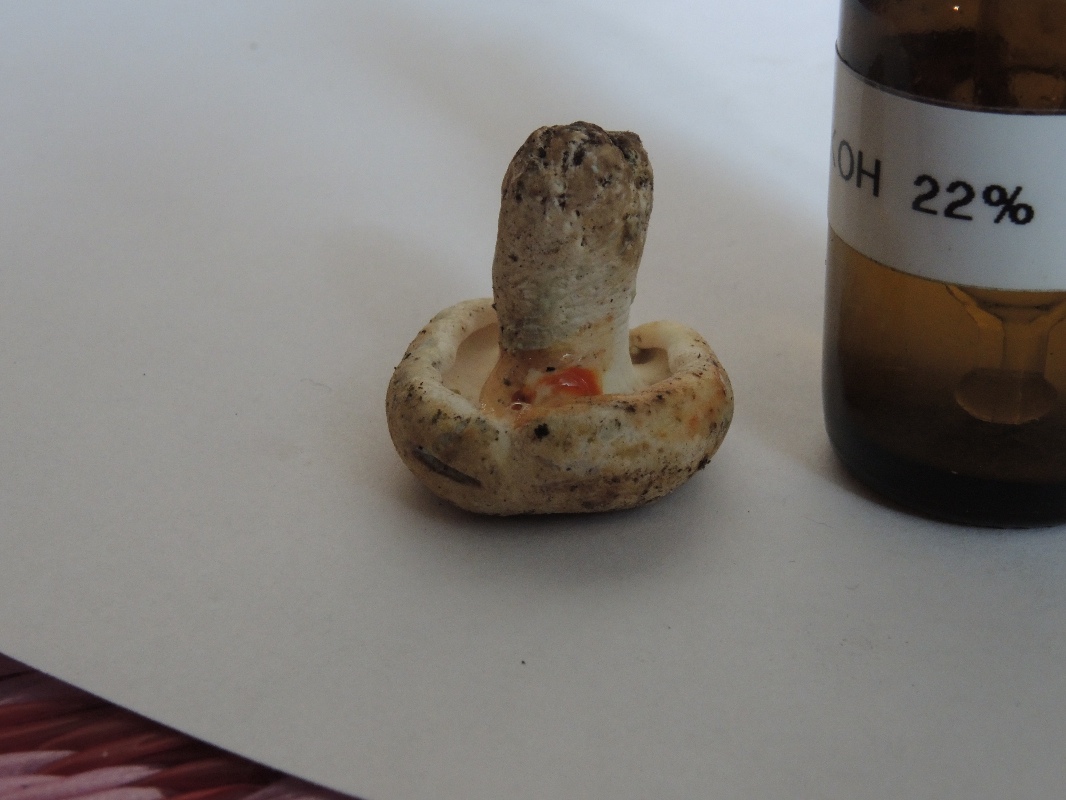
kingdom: Fungi
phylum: Basidiomycota
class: Agaricomycetes
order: Russulales
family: Russulaceae
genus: Lactifluus
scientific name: Lactifluus glaucescens
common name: grønplettet mælkehat
